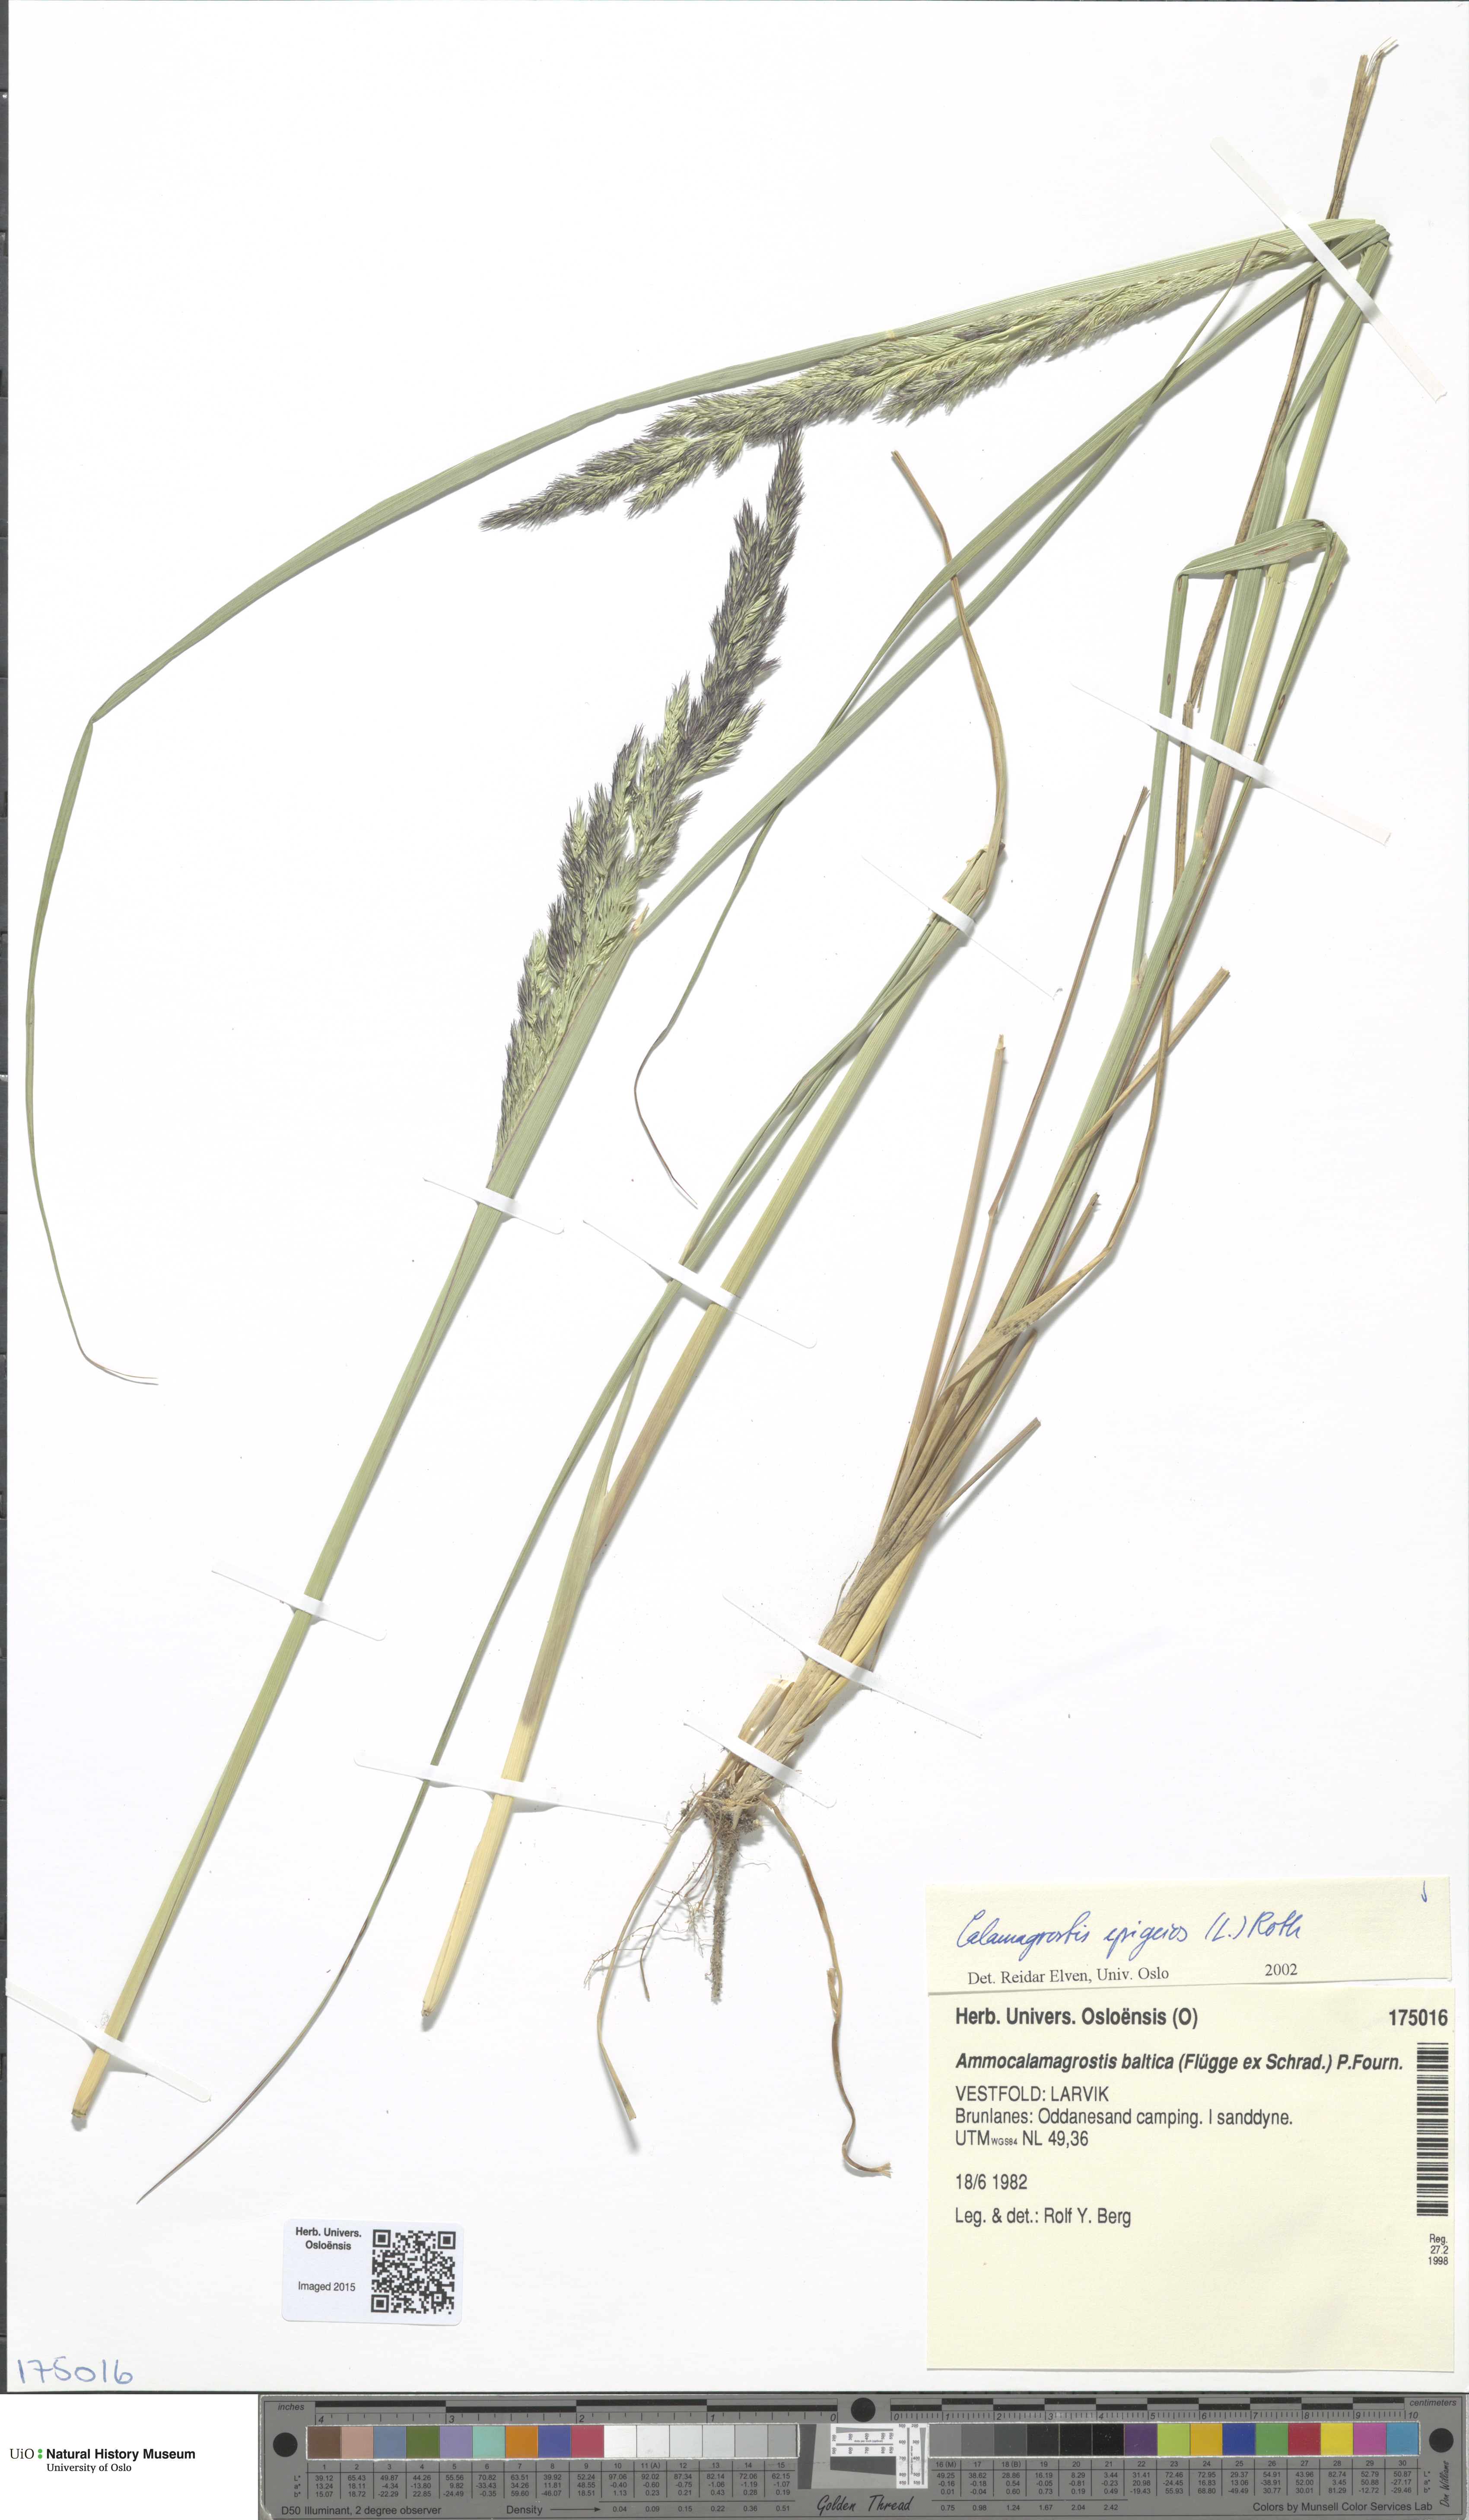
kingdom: Plantae
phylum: Tracheophyta
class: Liliopsida
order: Poales
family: Poaceae
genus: Calamagrostis
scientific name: Calamagrostis epigejos
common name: Wood small-reed
